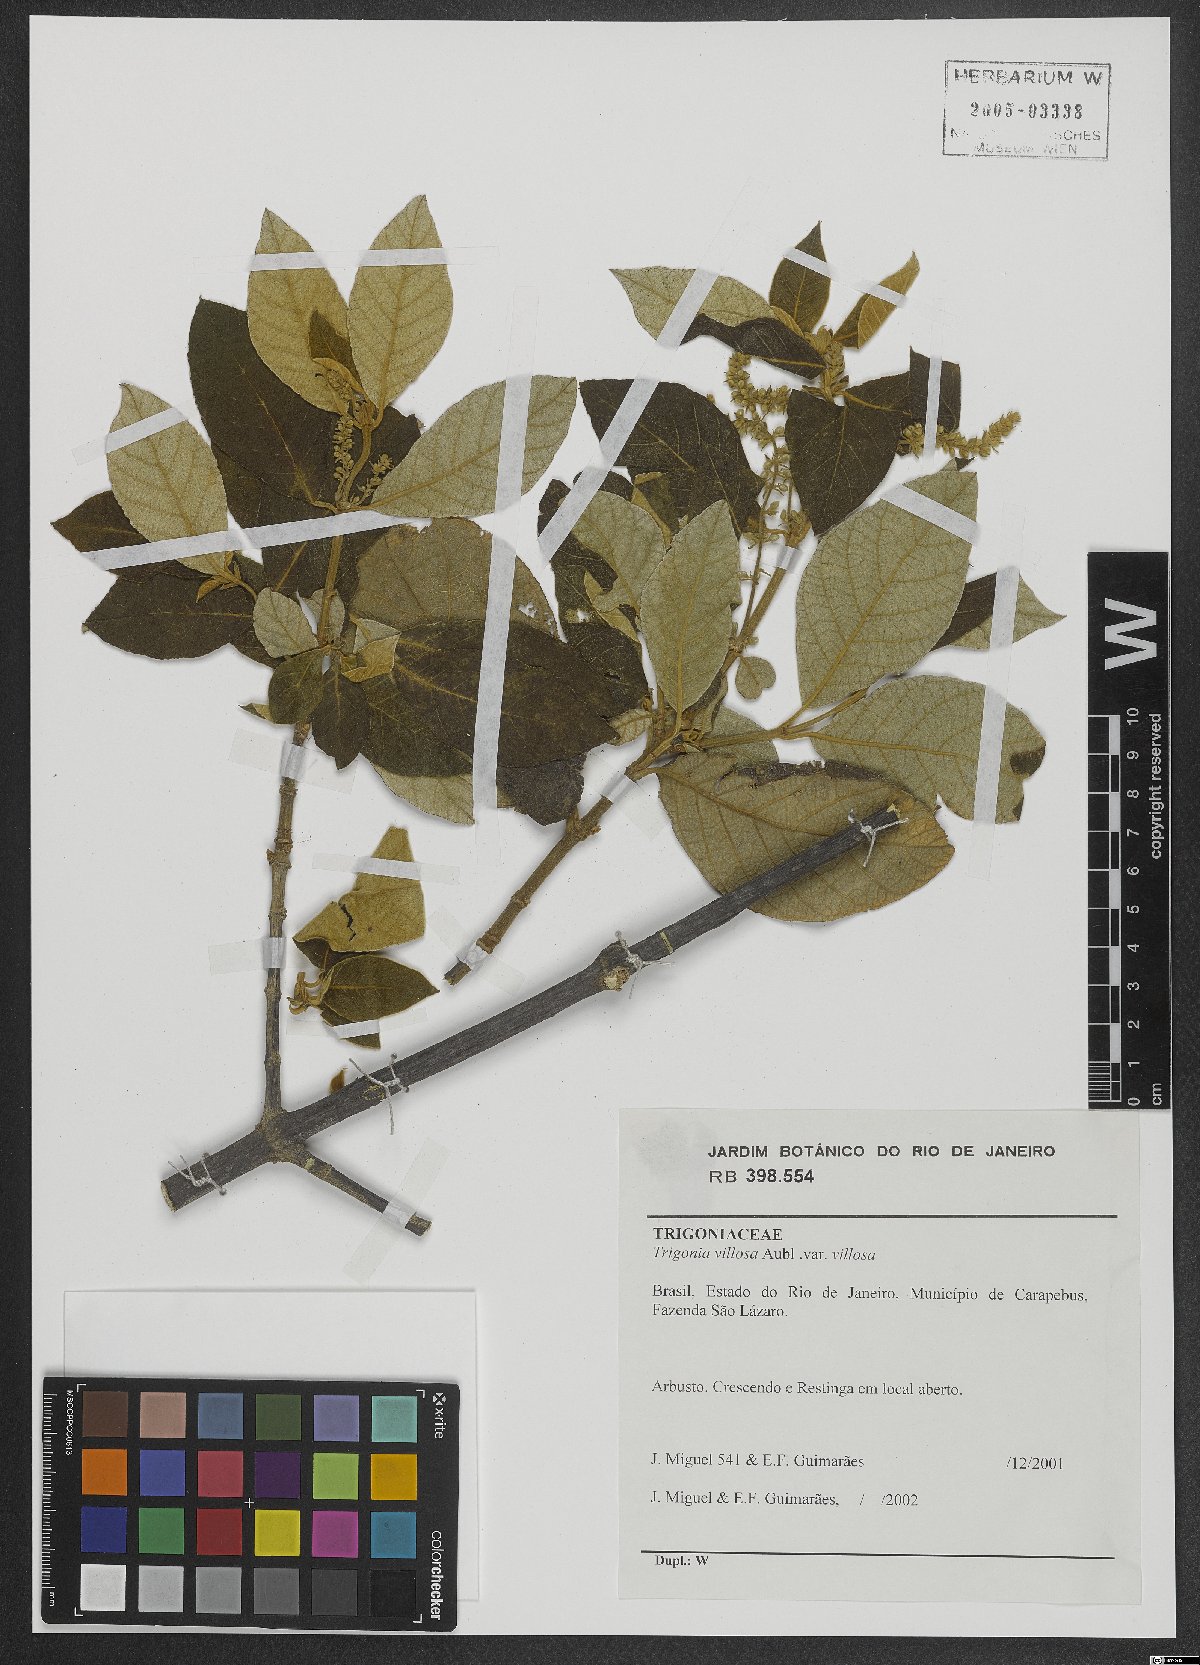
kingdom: Plantae
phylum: Tracheophyta
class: Magnoliopsida
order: Malpighiales
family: Trigoniaceae
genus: Trigonia
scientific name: Trigonia villosa
